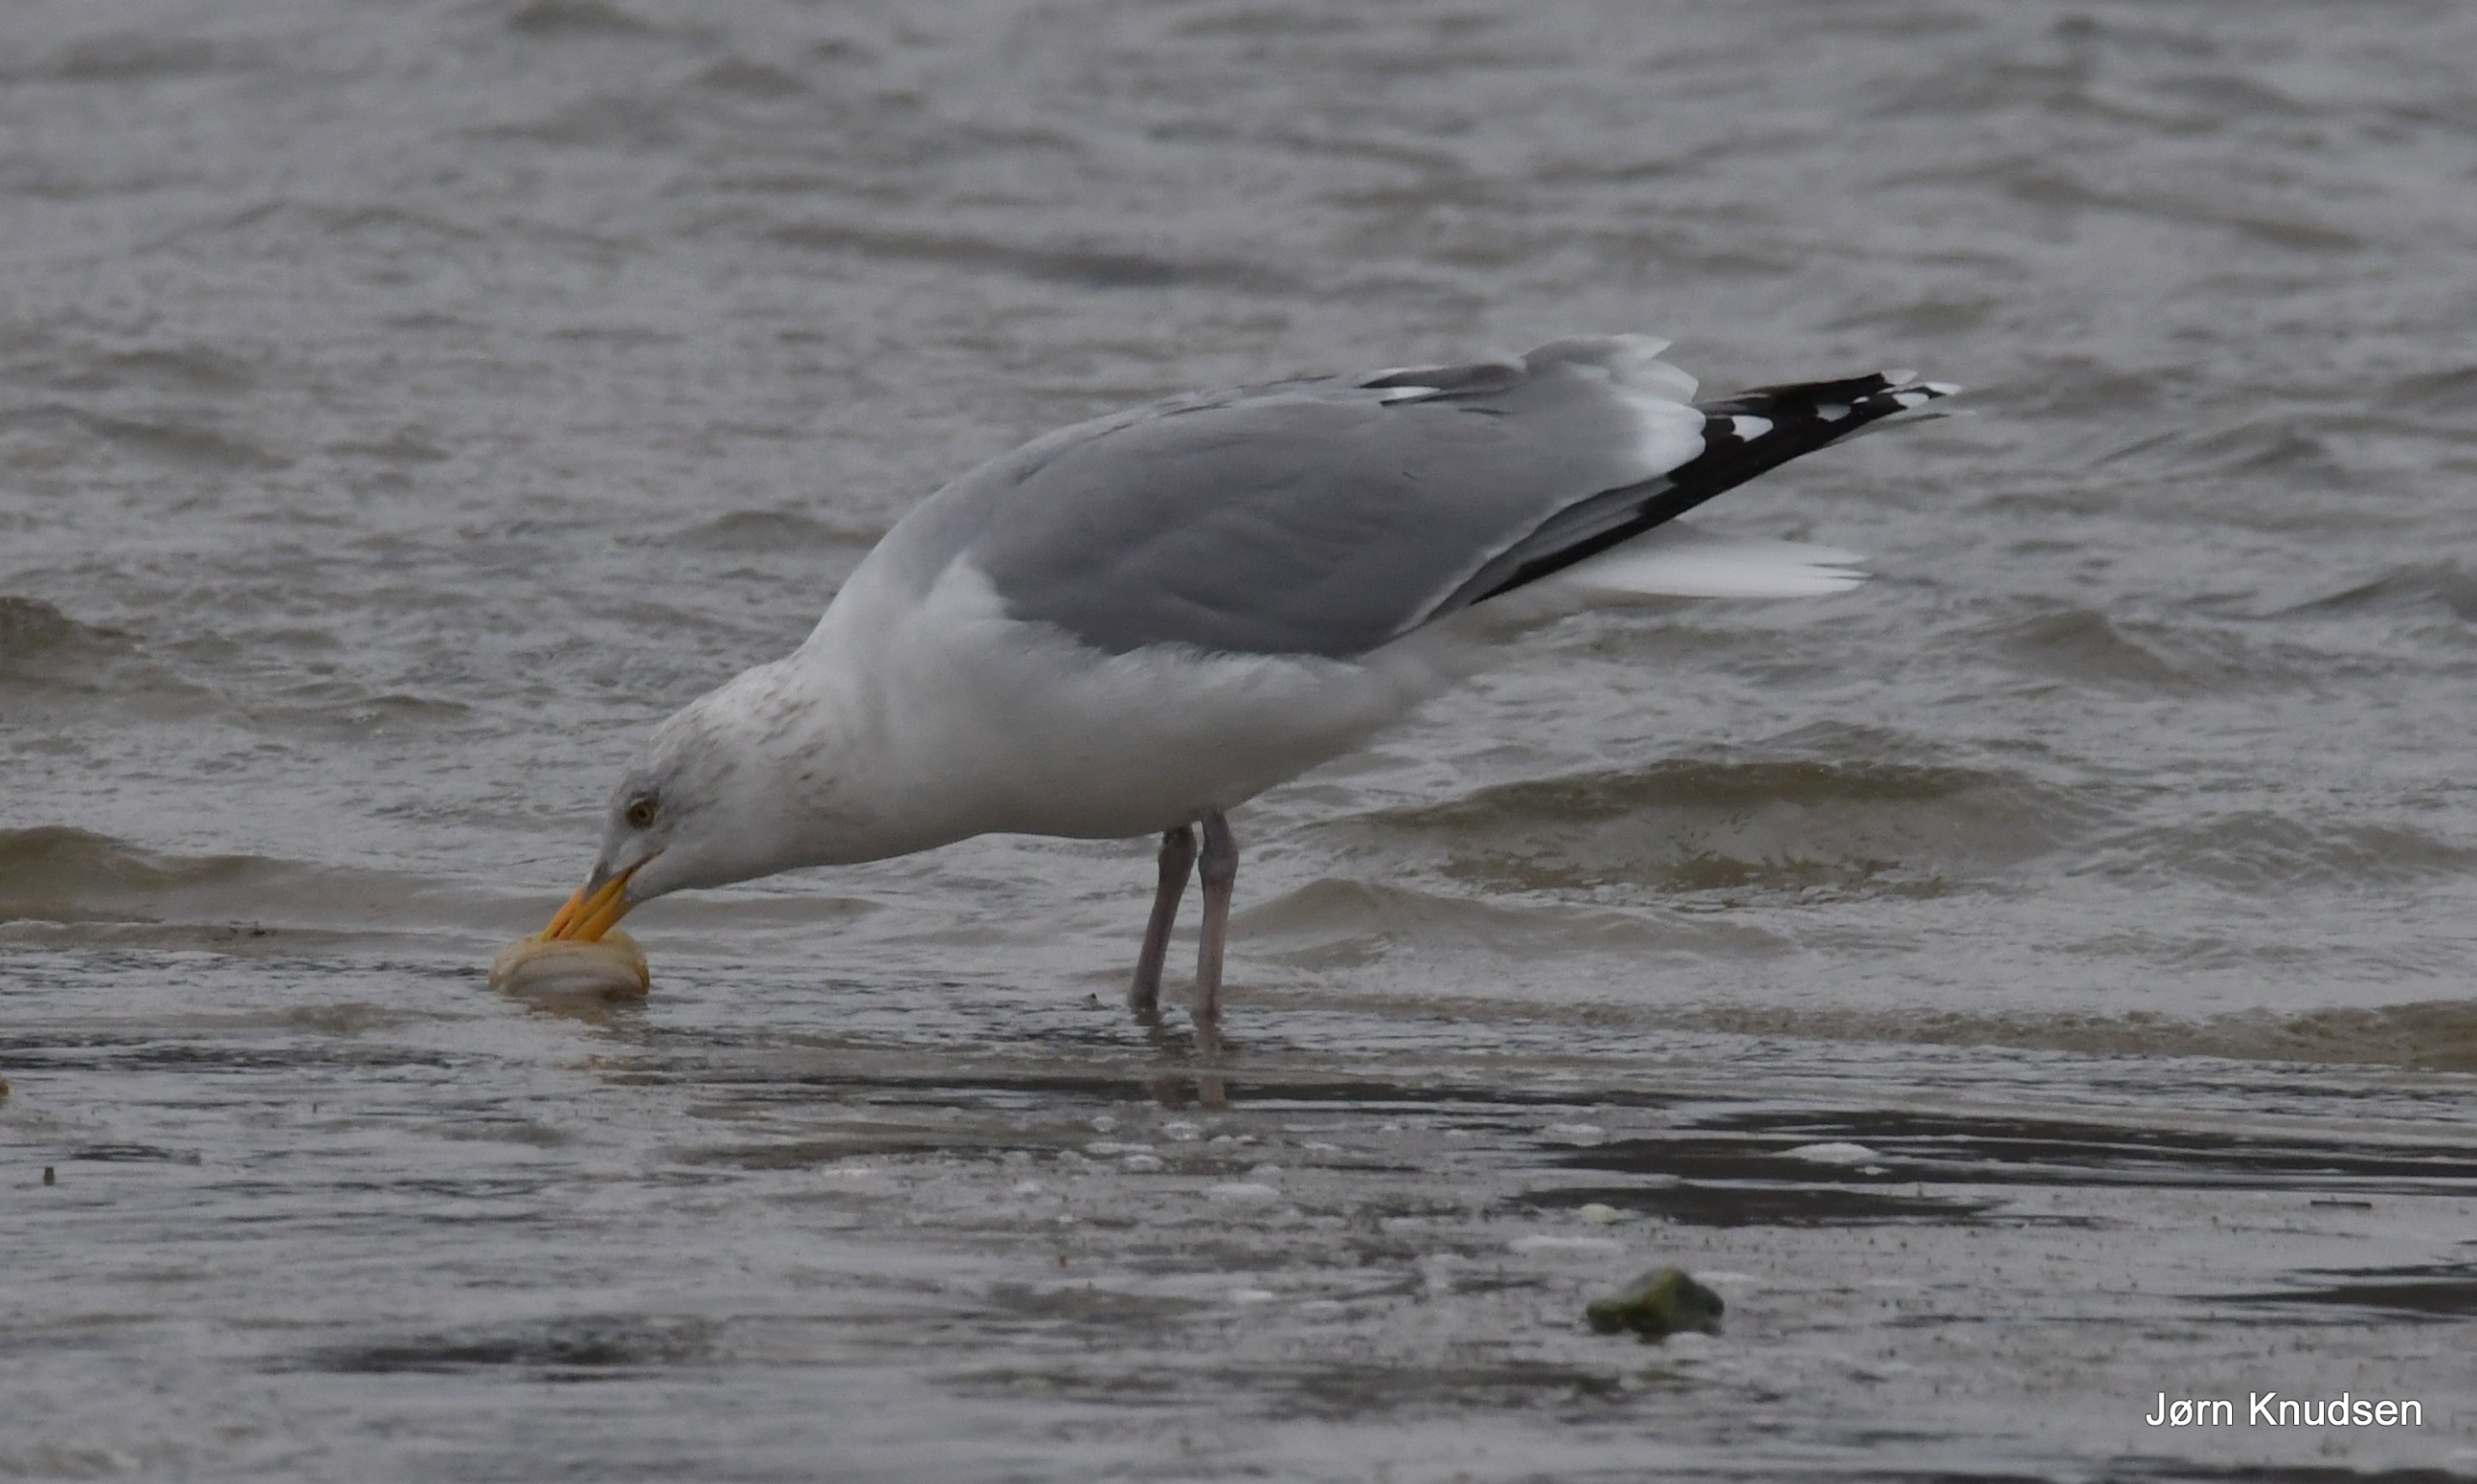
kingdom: Animalia
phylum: Chordata
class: Aves
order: Charadriiformes
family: Laridae
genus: Larus
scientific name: Larus argentatus
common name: Sølvmåge
